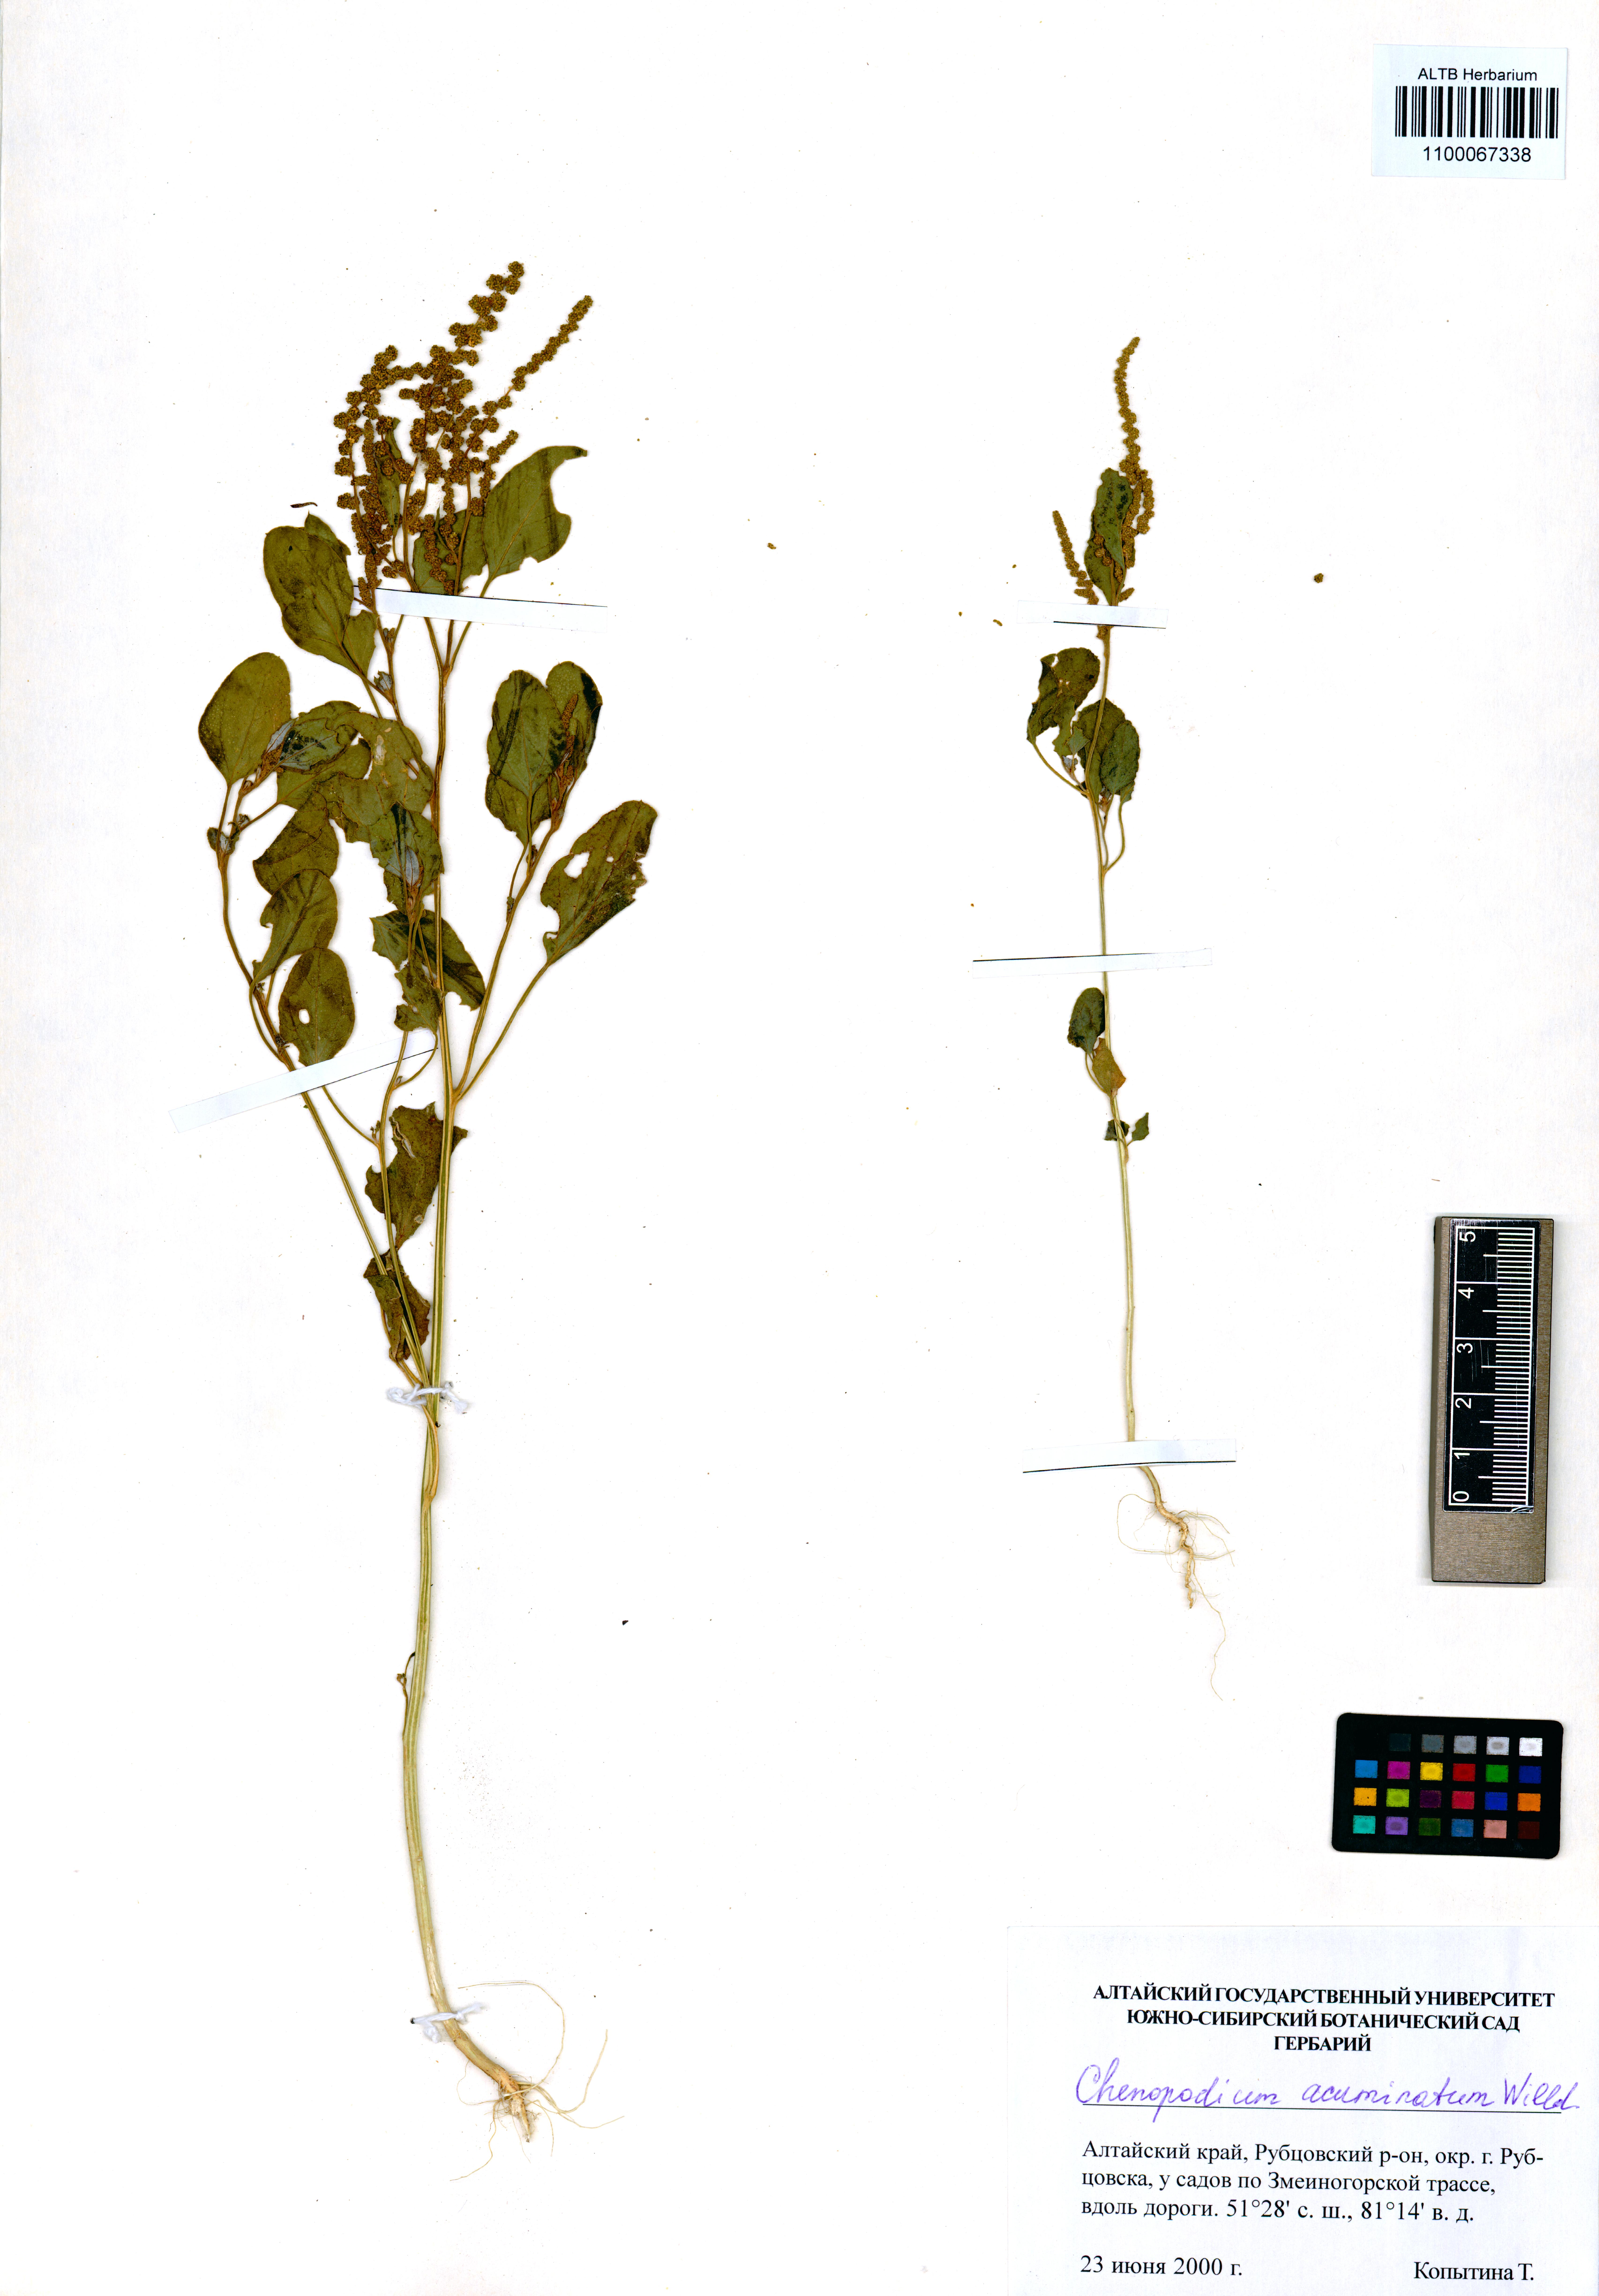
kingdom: Plantae
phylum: Tracheophyta
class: Magnoliopsida
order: Caryophyllales
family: Amaranthaceae
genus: Chenopodium
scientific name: Chenopodium acuminatum
